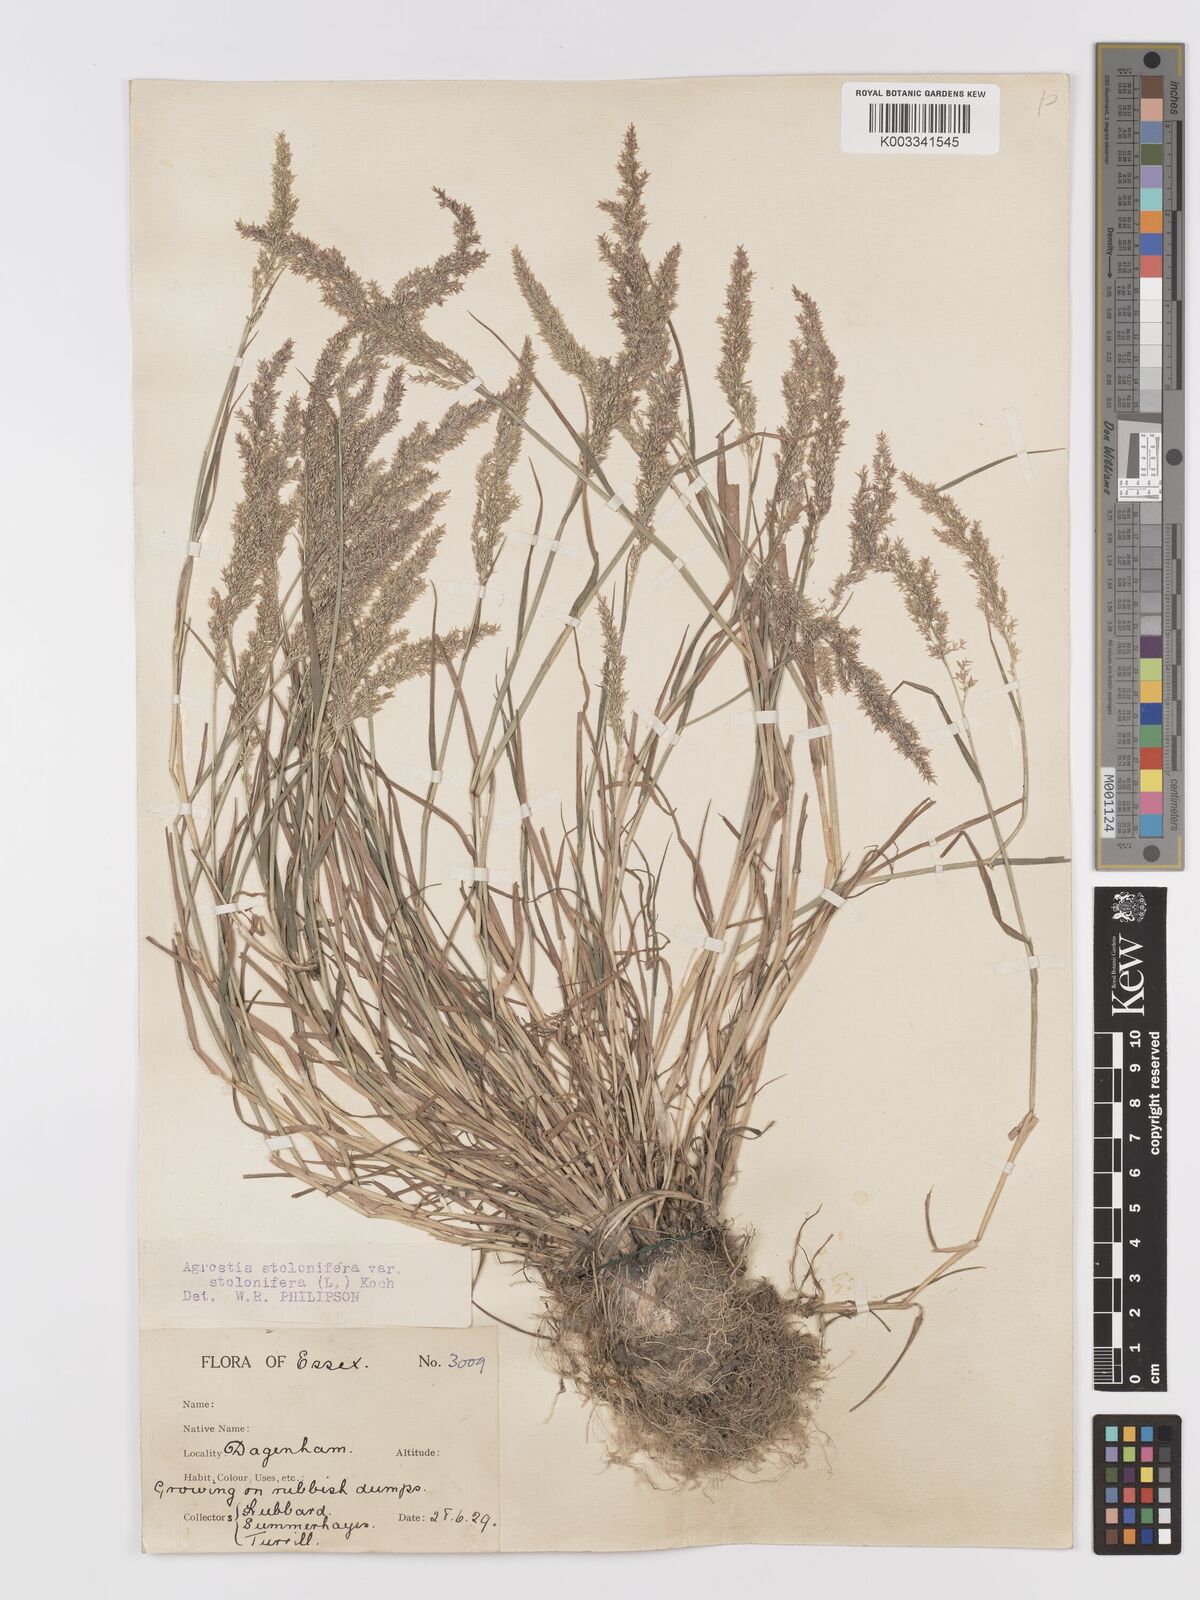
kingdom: Plantae
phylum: Tracheophyta
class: Liliopsida
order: Poales
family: Poaceae
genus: Agrostis
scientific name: Agrostis stolonifera
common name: Creeping bentgrass
